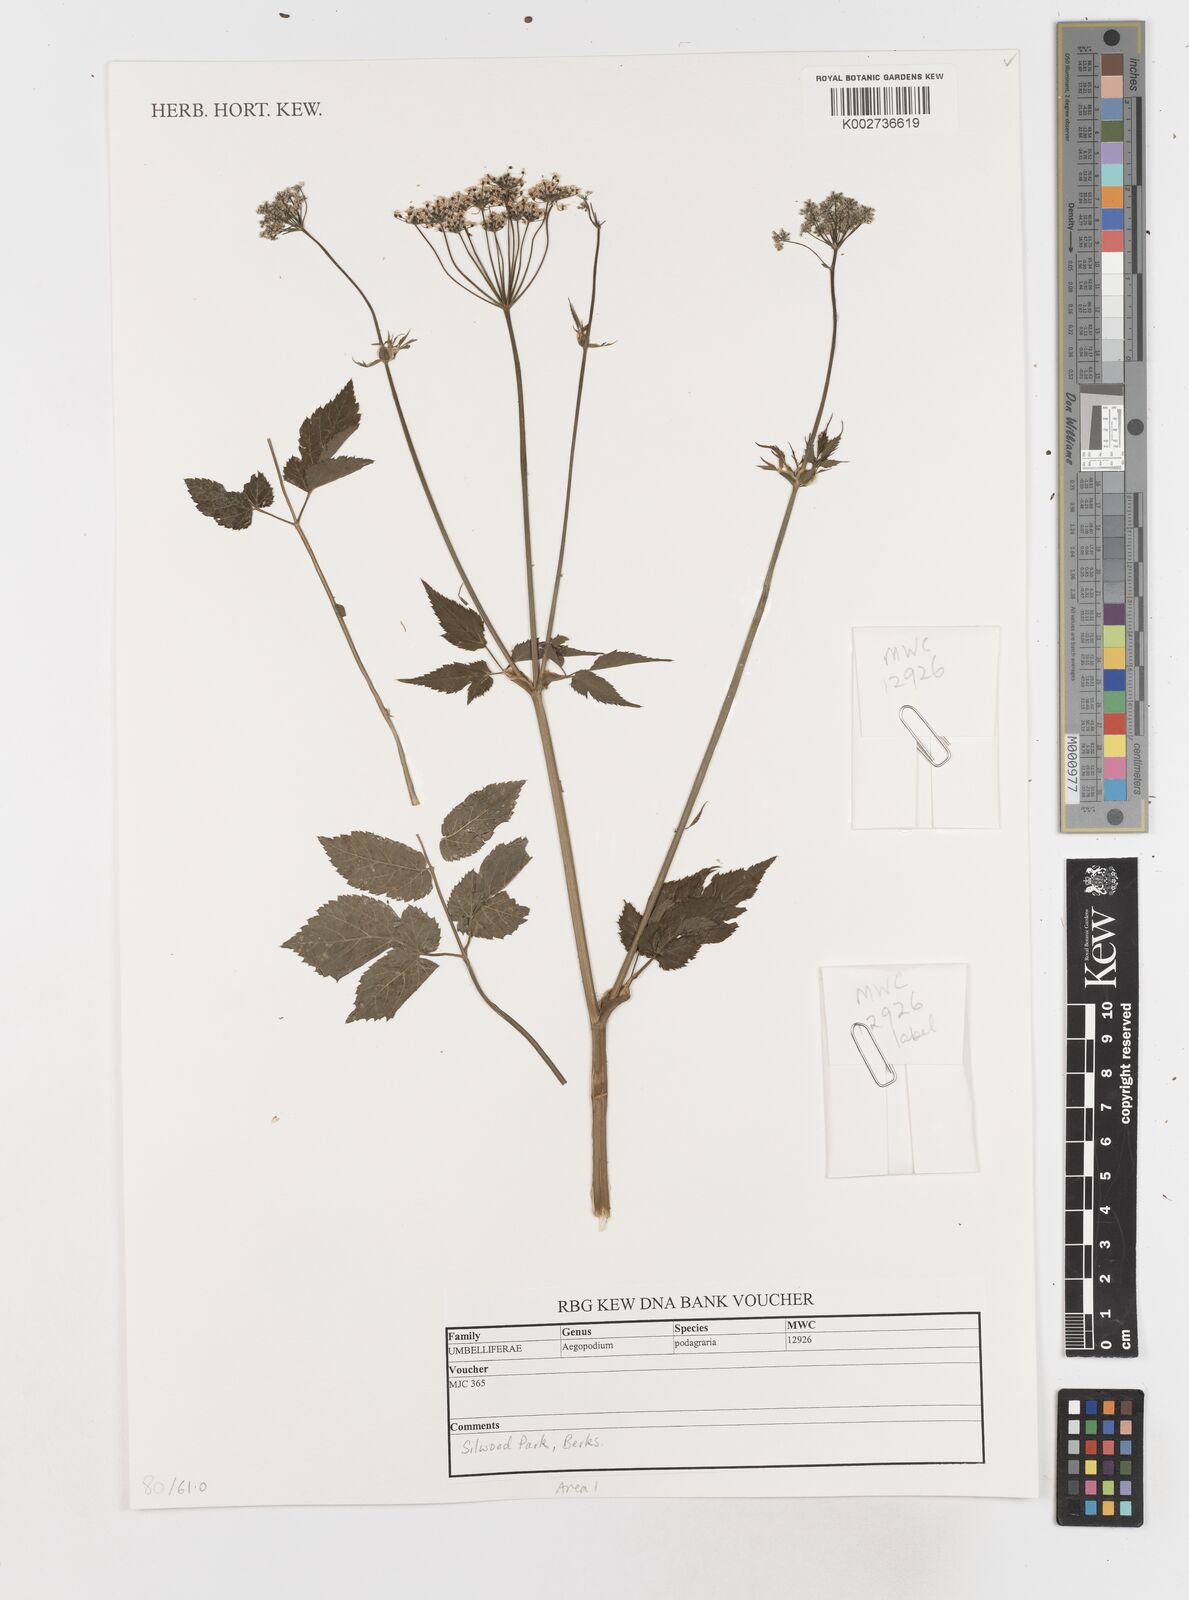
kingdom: Plantae
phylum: Tracheophyta
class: Magnoliopsida
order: Apiales
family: Apiaceae
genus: Aegopodium
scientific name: Aegopodium podagraria
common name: Ground-elder
